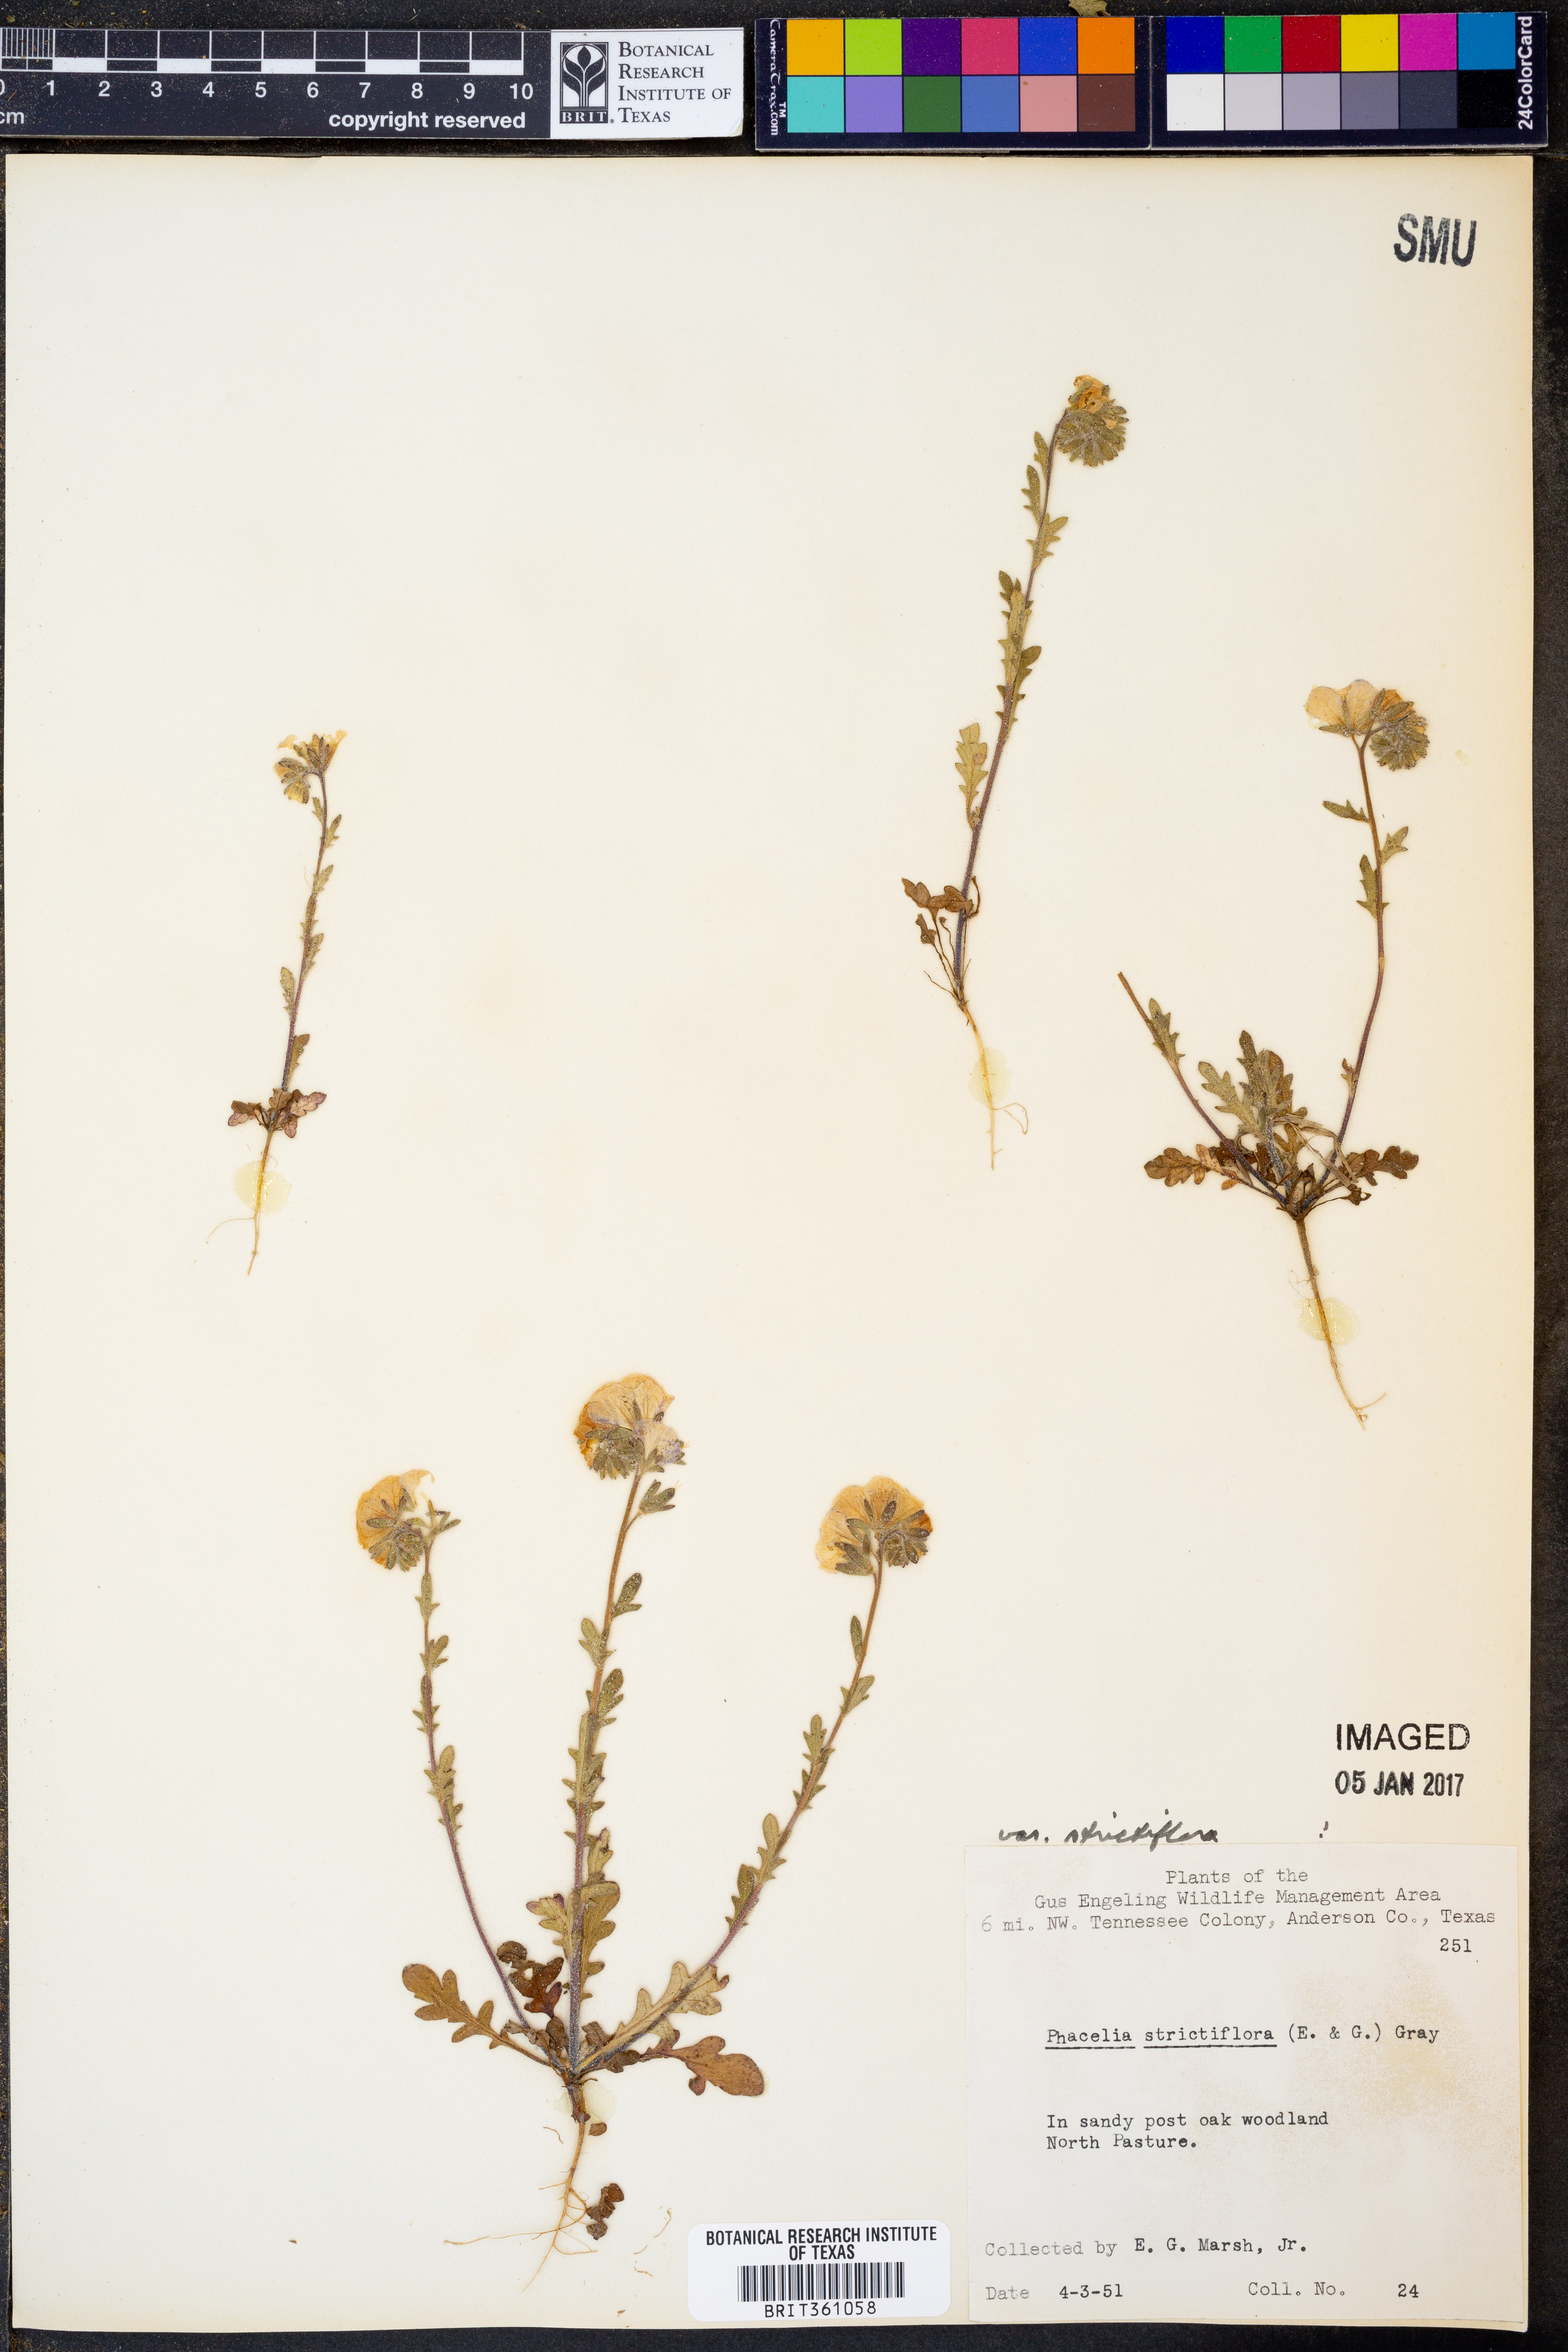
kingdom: Plantae
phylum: Tracheophyta
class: Magnoliopsida
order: Boraginales
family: Hydrophyllaceae
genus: Phacelia
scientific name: Phacelia strictiflora
